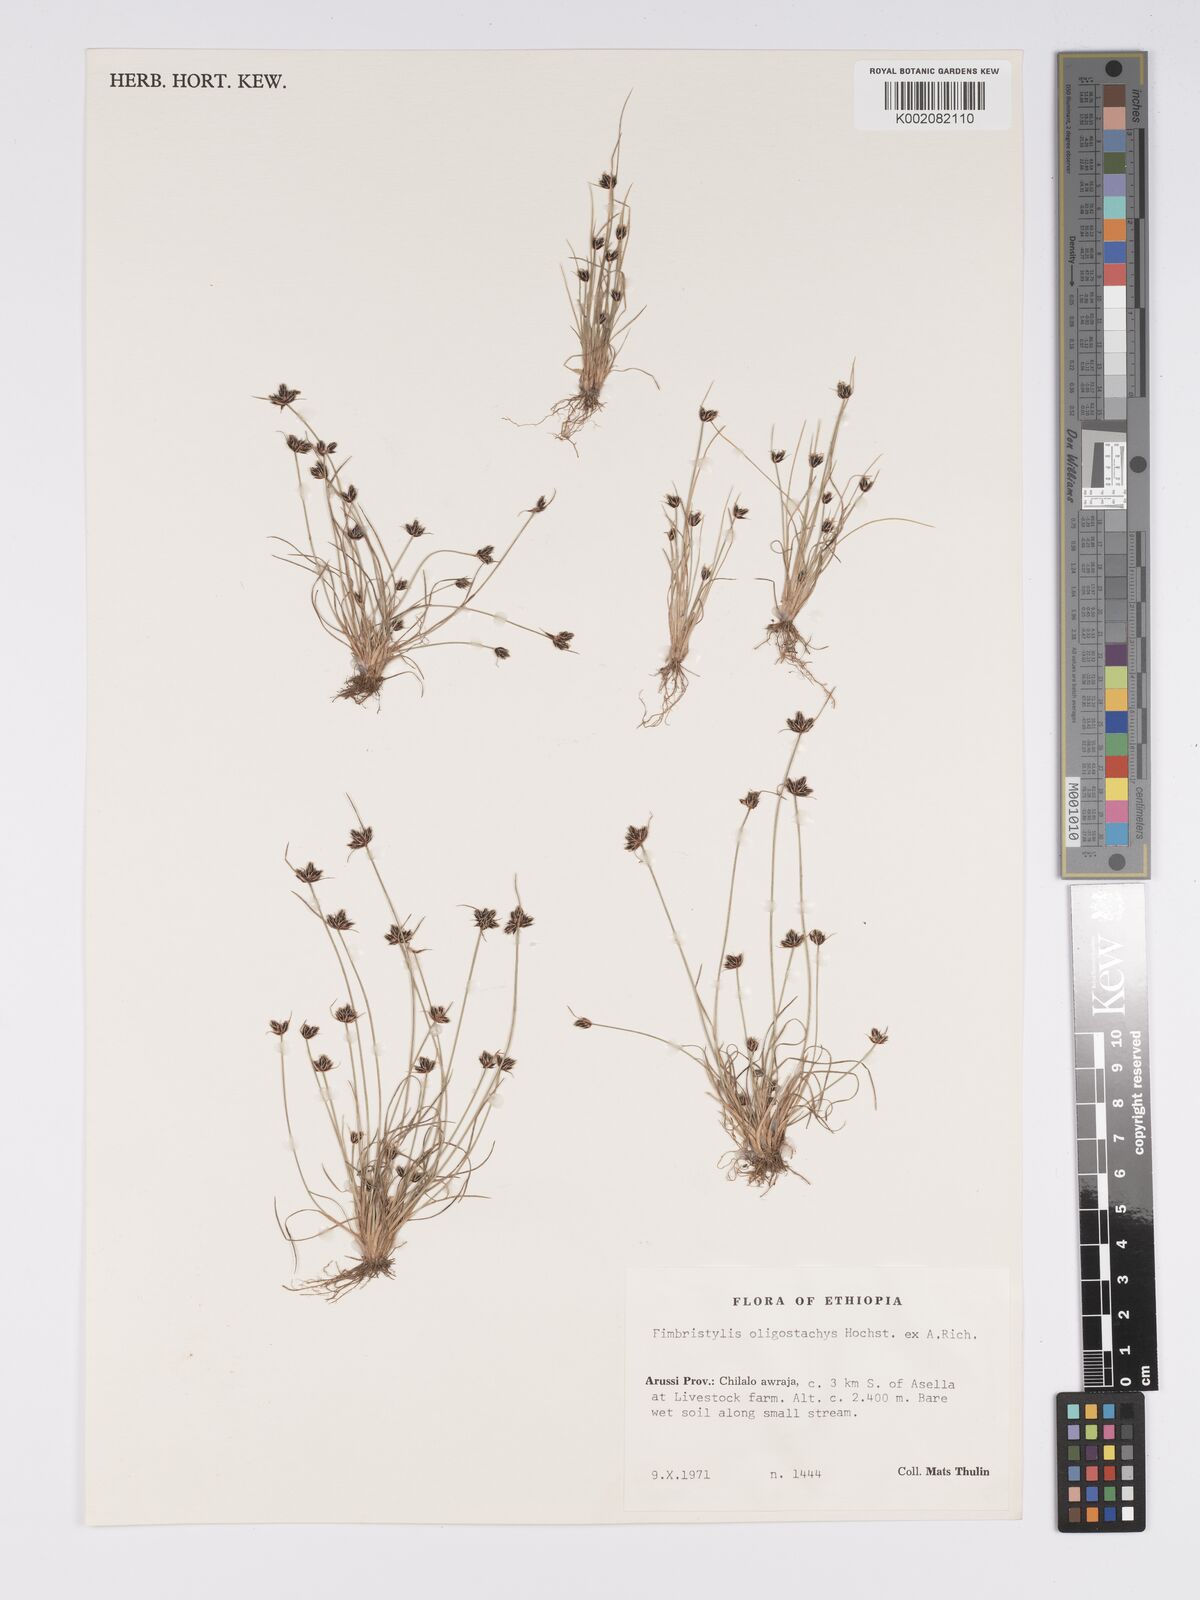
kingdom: Plantae
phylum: Tracheophyta
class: Liliopsida
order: Poales
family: Cyperaceae
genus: Bulbostylis
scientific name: Bulbostylis hispidula
